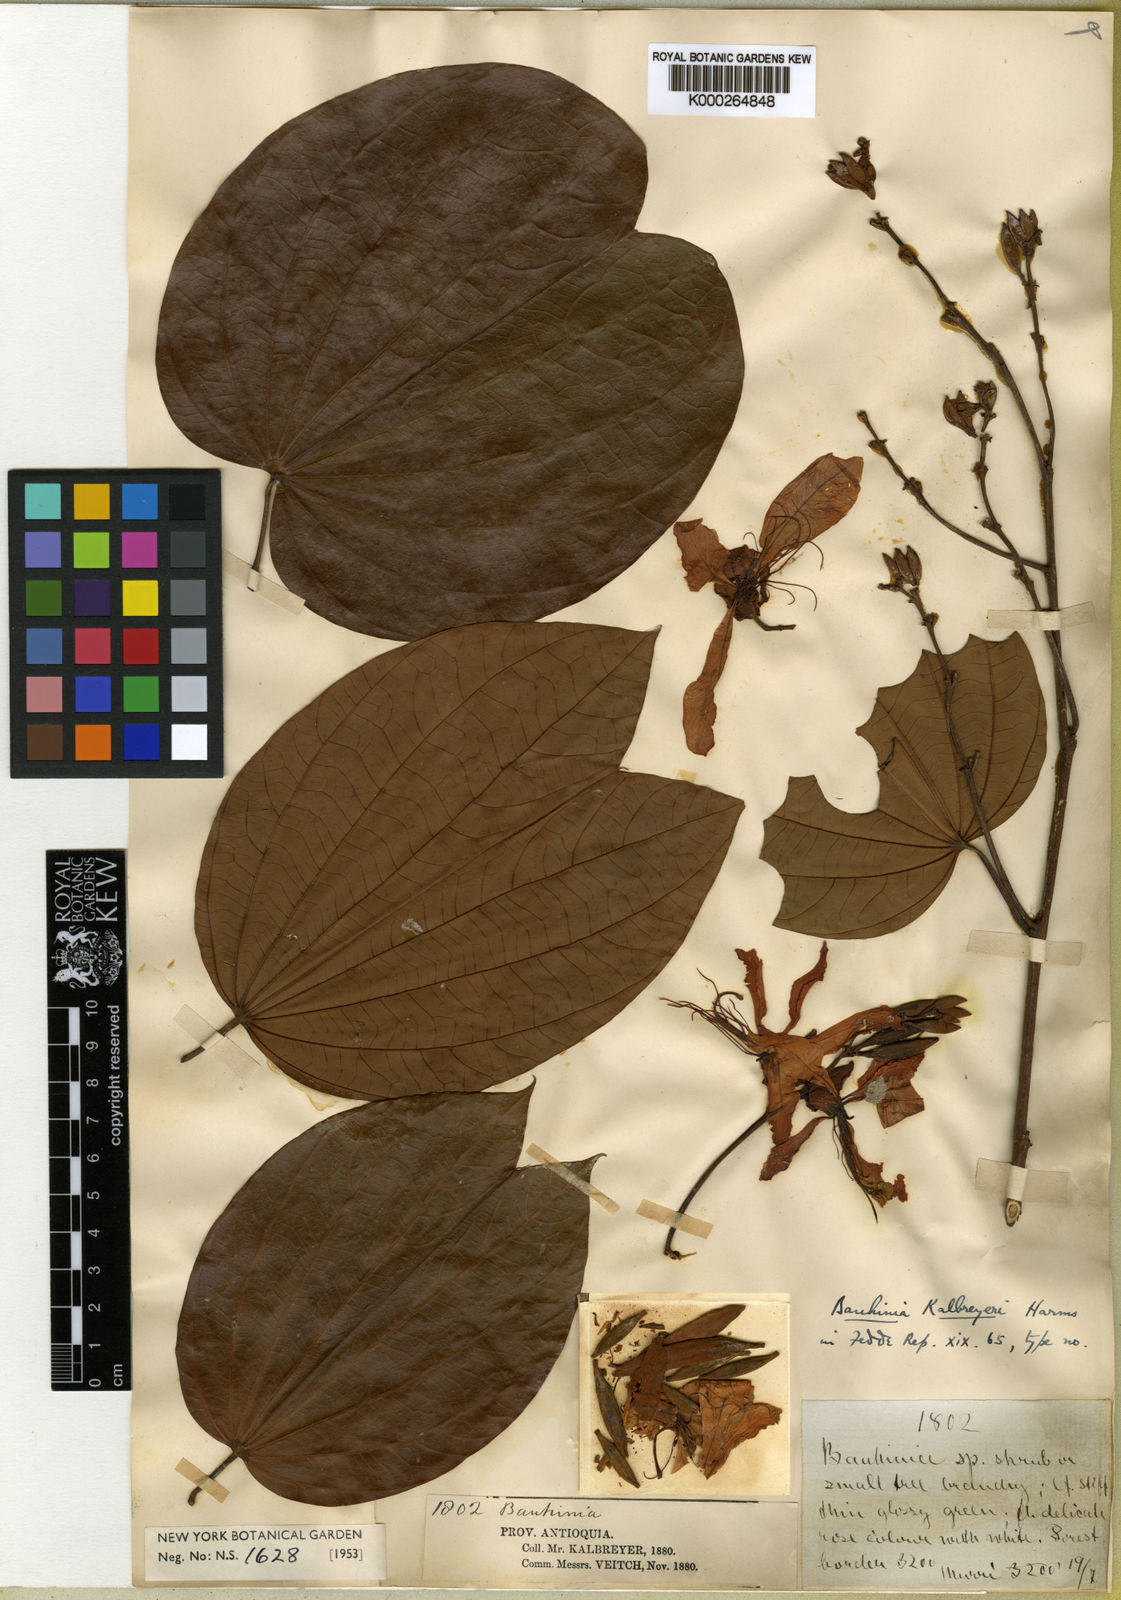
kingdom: Plantae
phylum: Tracheophyta
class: Magnoliopsida
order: Fabales
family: Fabaceae
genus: Bauhinia
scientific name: Bauhinia picta
